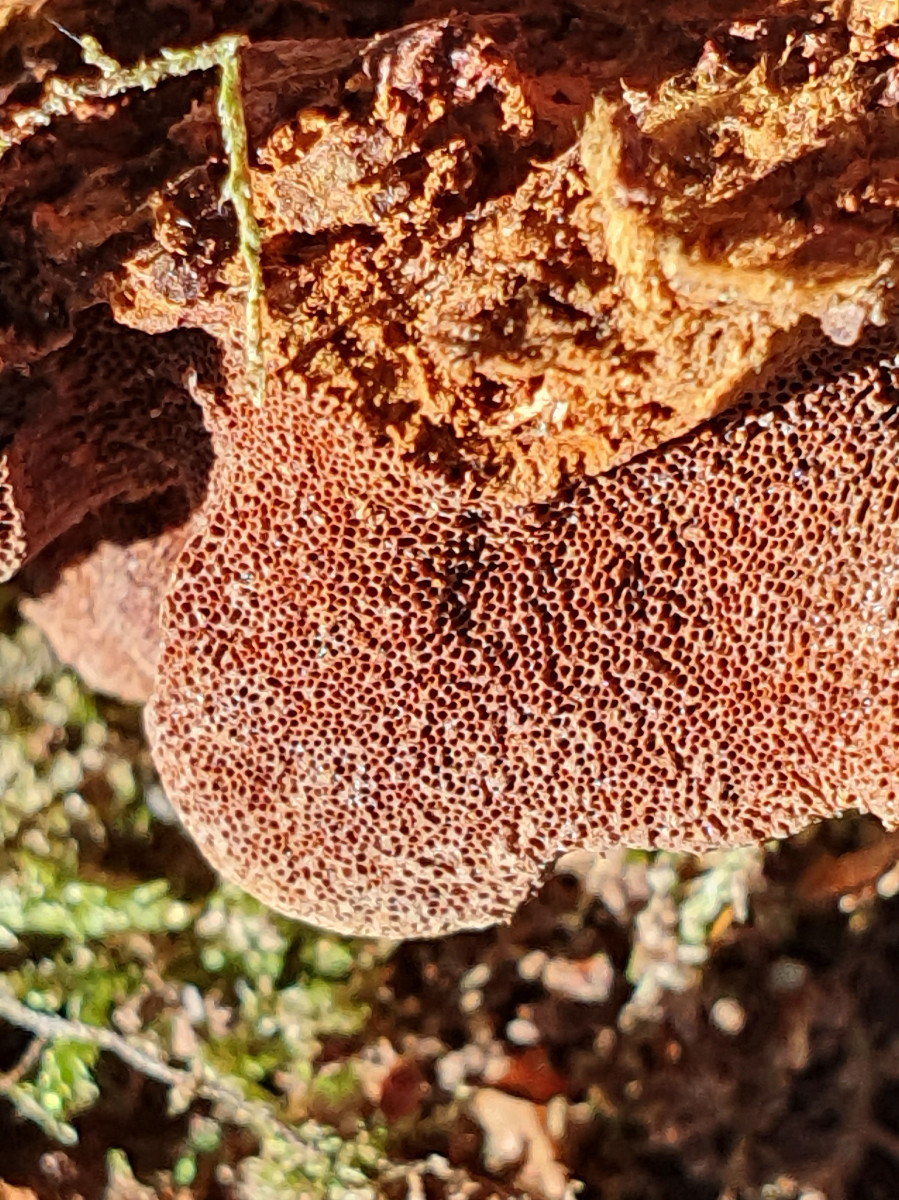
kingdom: Fungi
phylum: Basidiomycota
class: Agaricomycetes
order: Hymenochaetales
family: Hymenochaetaceae
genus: Fuscoporia
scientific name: Fuscoporia ferrea
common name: skorpe-ildporesvamp
